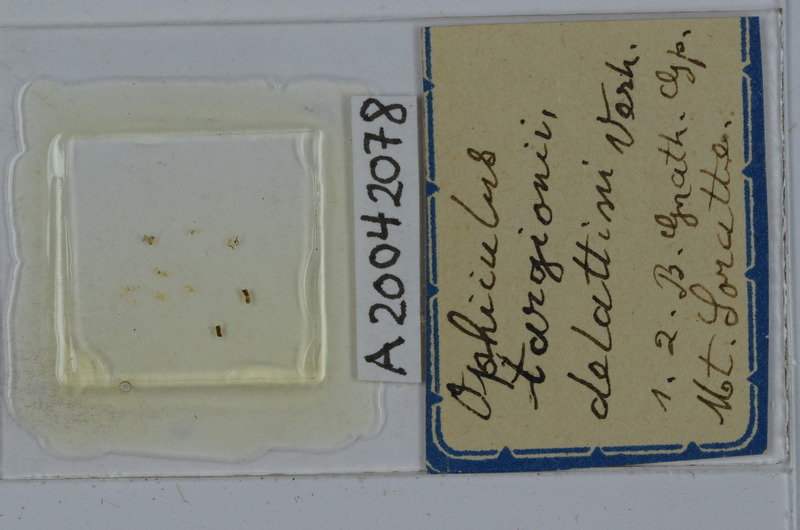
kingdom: Animalia
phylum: Arthropoda
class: Diplopoda
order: Julida
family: Julidae
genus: Ophyiulus
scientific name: Ophyiulus targionii
